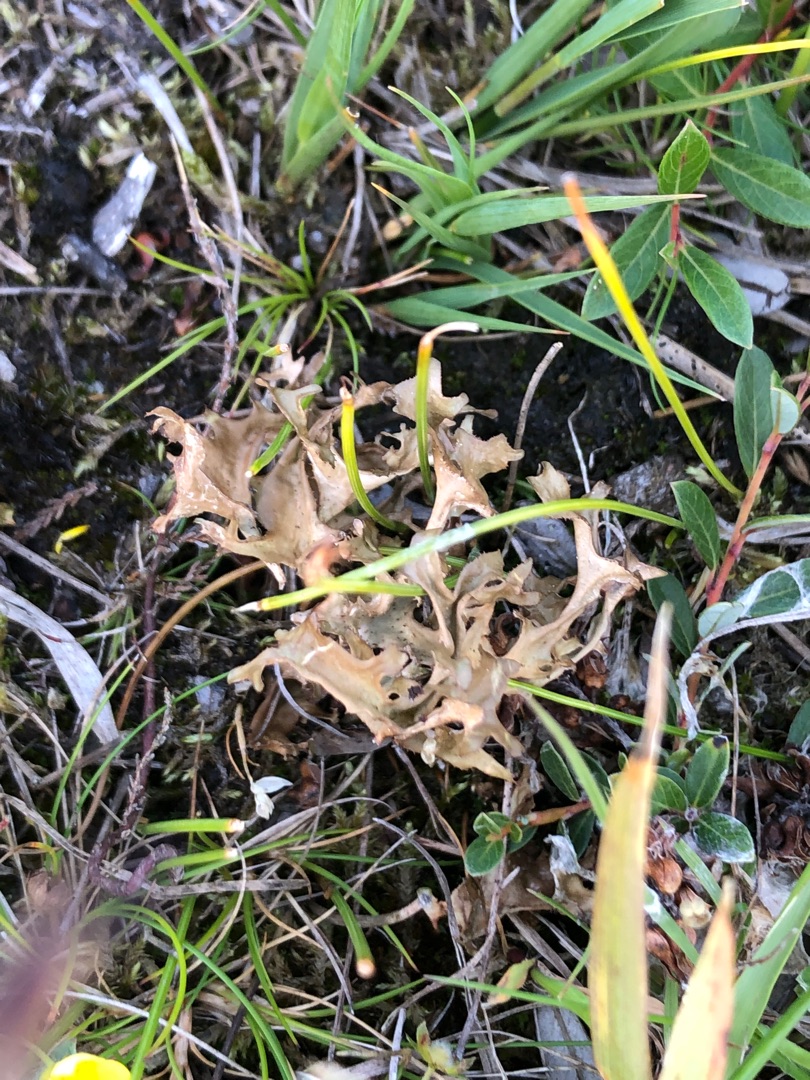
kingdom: Fungi
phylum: Ascomycota
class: Lecanoromycetes
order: Lecanorales
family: Parmeliaceae
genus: Cetraria
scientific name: Cetraria islandica
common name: Islandsk kruslav
